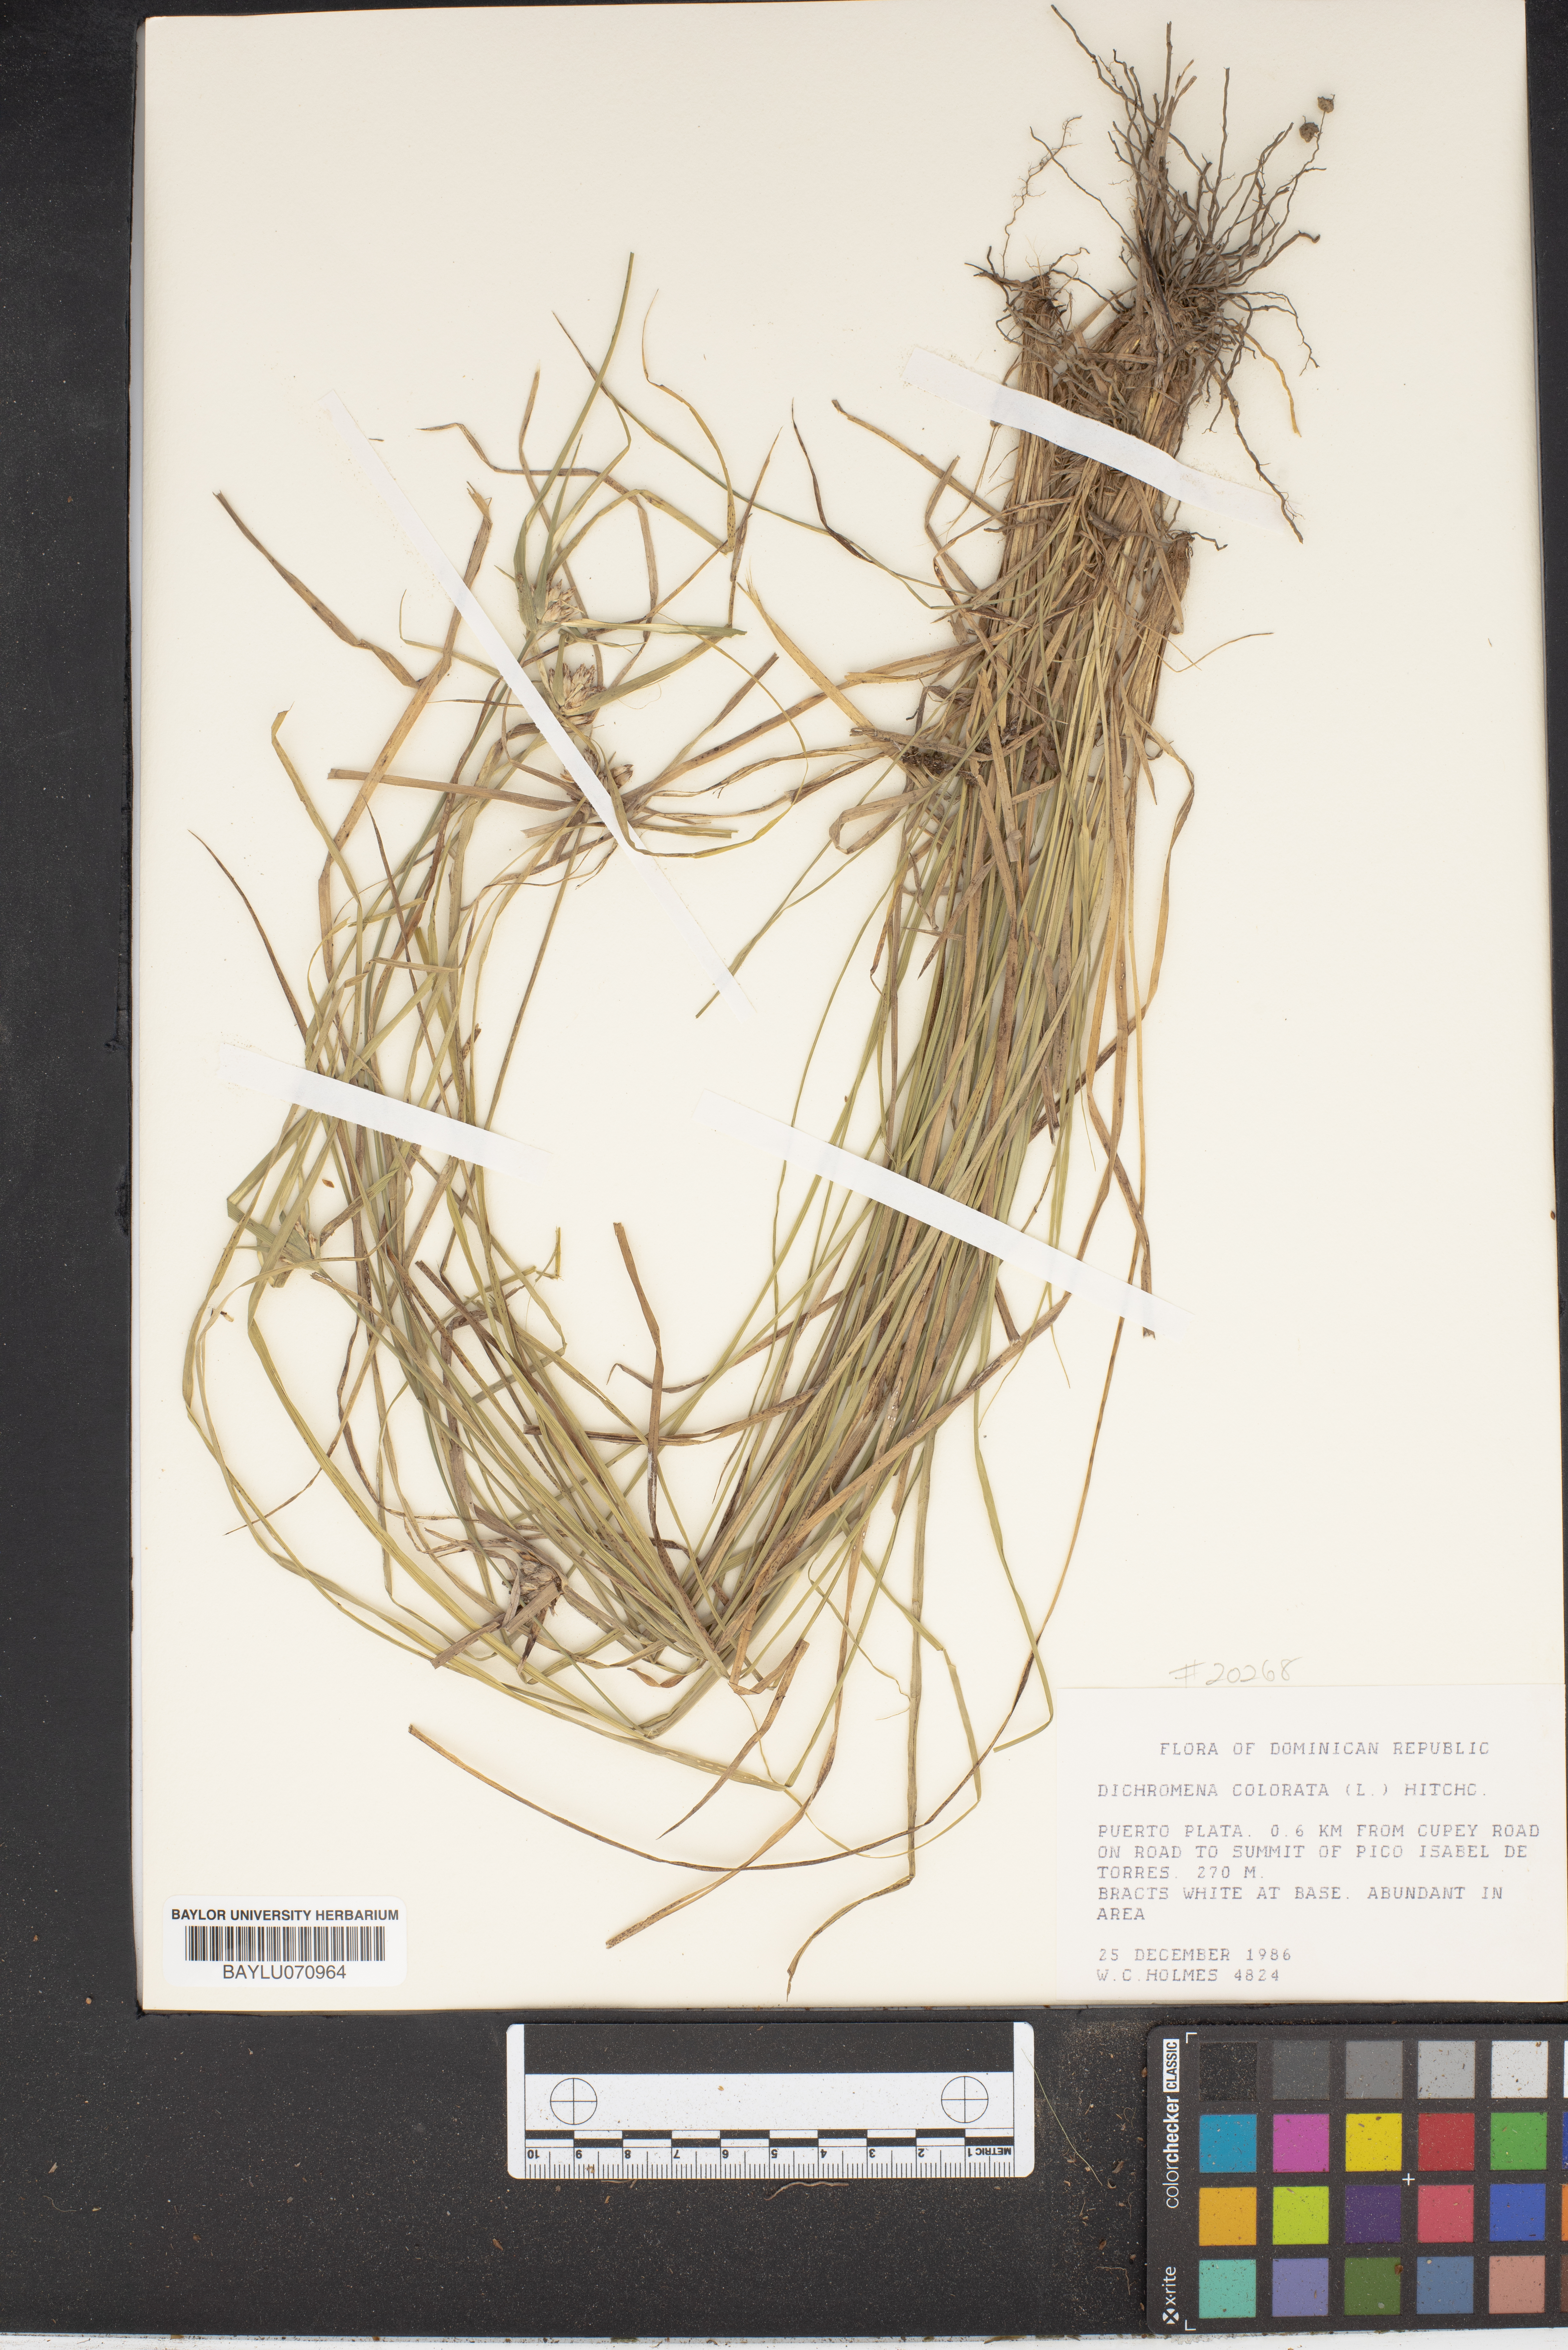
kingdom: Plantae
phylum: Tracheophyta
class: Liliopsida
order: Poales
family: Cyperaceae
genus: Rhynchospora
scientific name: Rhynchospora colorata
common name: Star sedge
